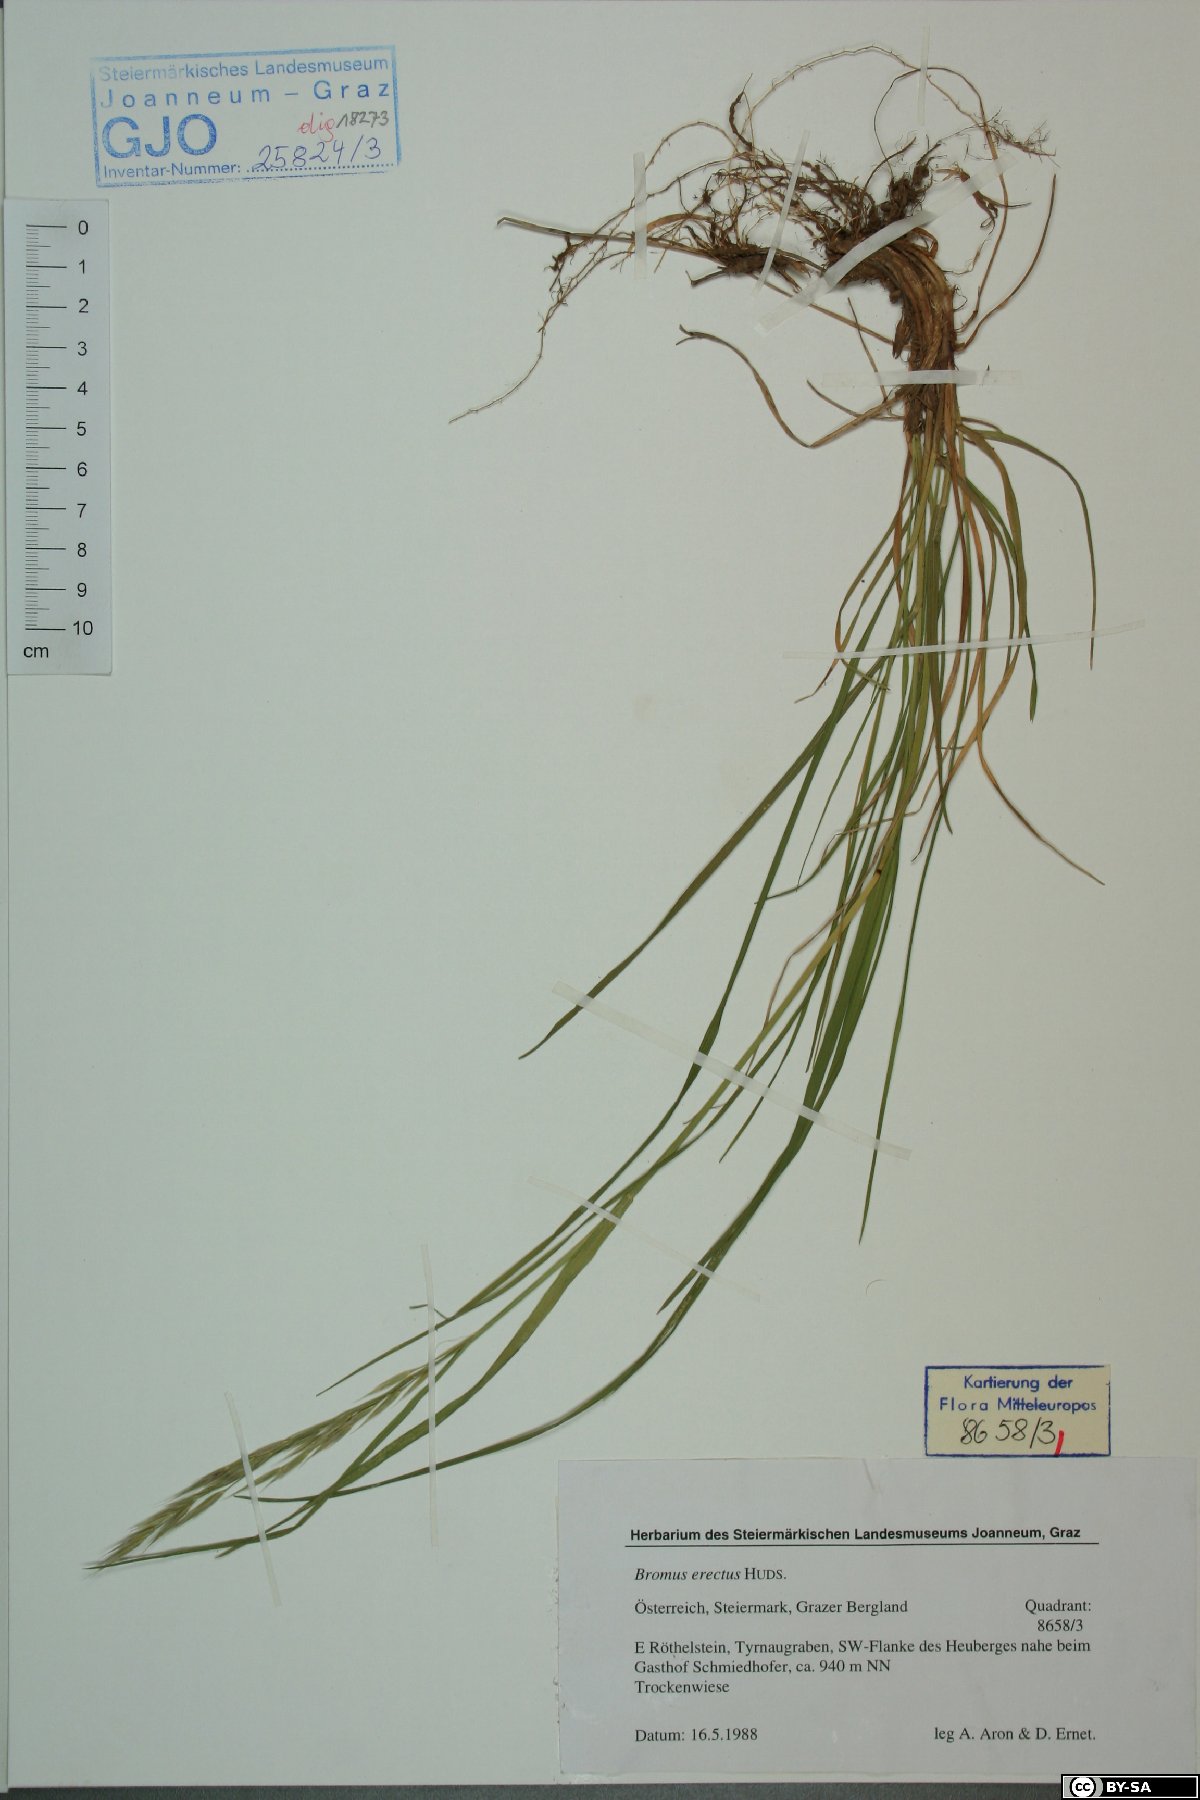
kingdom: Plantae
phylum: Tracheophyta
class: Liliopsida
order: Poales
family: Poaceae
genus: Bromus
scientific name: Bromus erectus
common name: Erect brome
